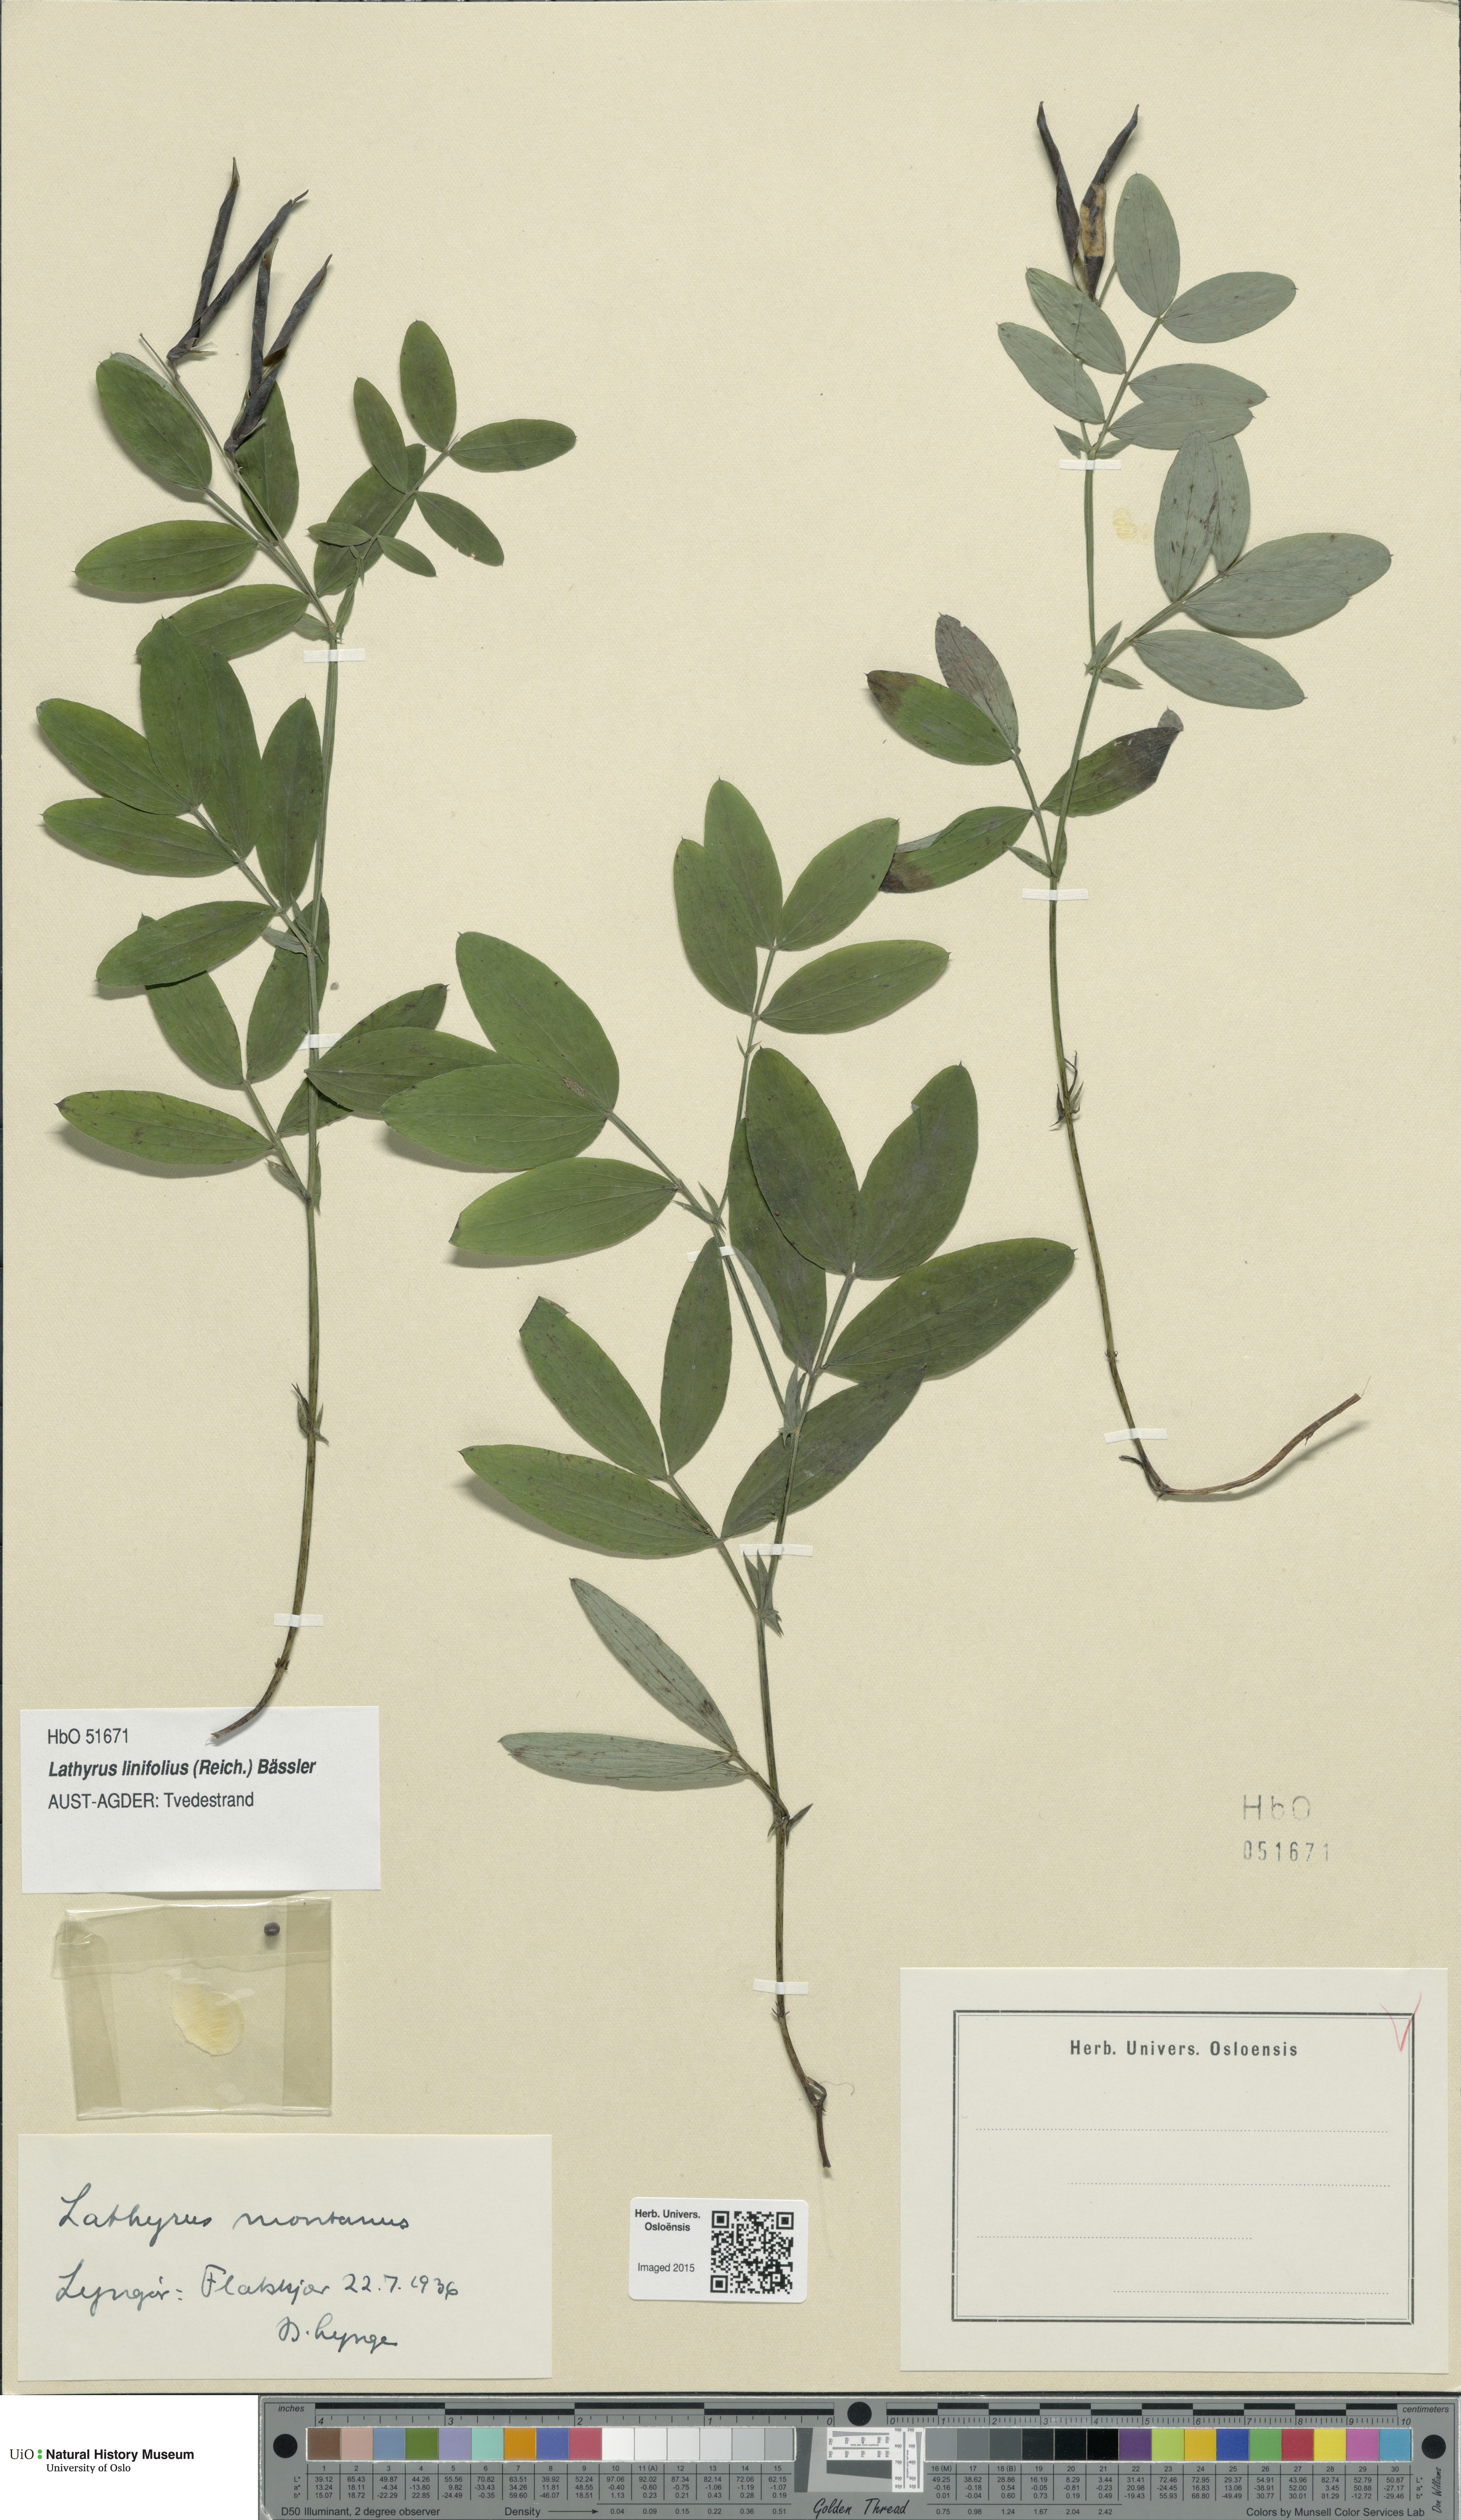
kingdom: Plantae
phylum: Tracheophyta
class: Magnoliopsida
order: Fabales
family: Fabaceae
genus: Lathyrus
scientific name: Lathyrus linifolius
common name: Bitter-vetch
